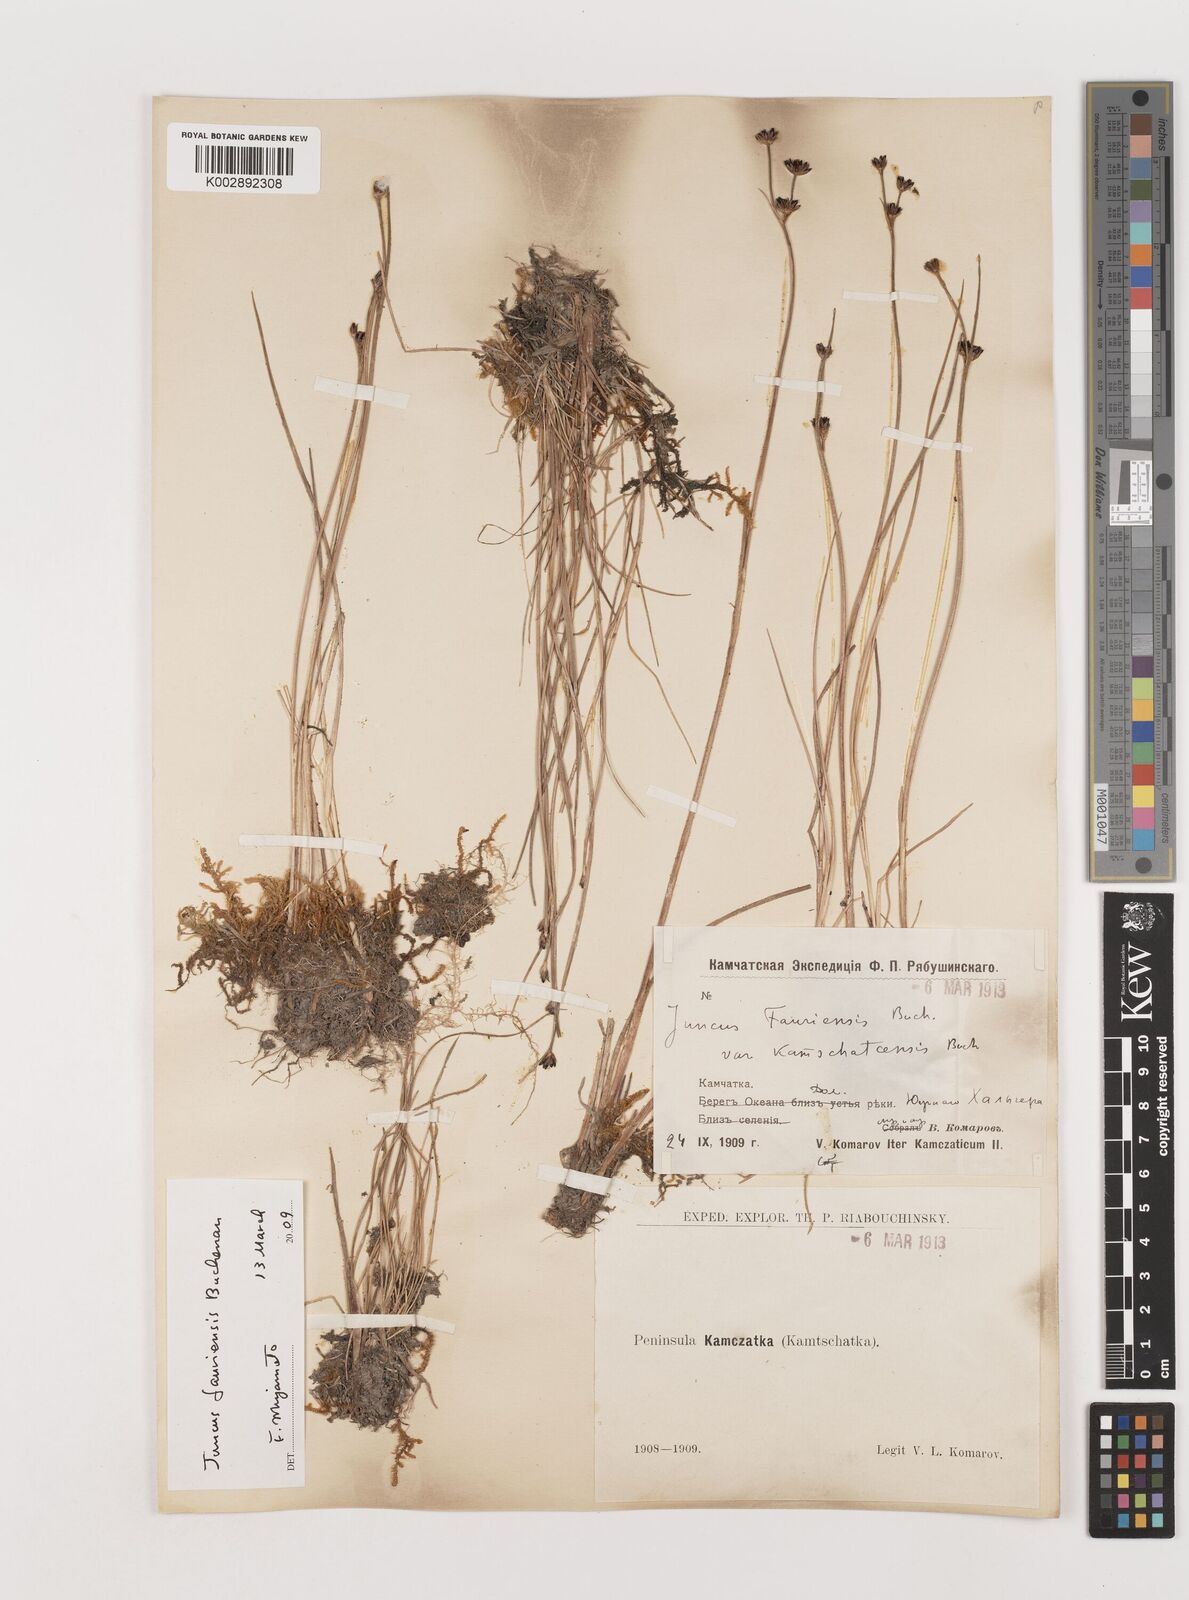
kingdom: Plantae
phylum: Tracheophyta
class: Liliopsida
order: Poales
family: Juncaceae
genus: Juncus
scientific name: Juncus fauriensis
